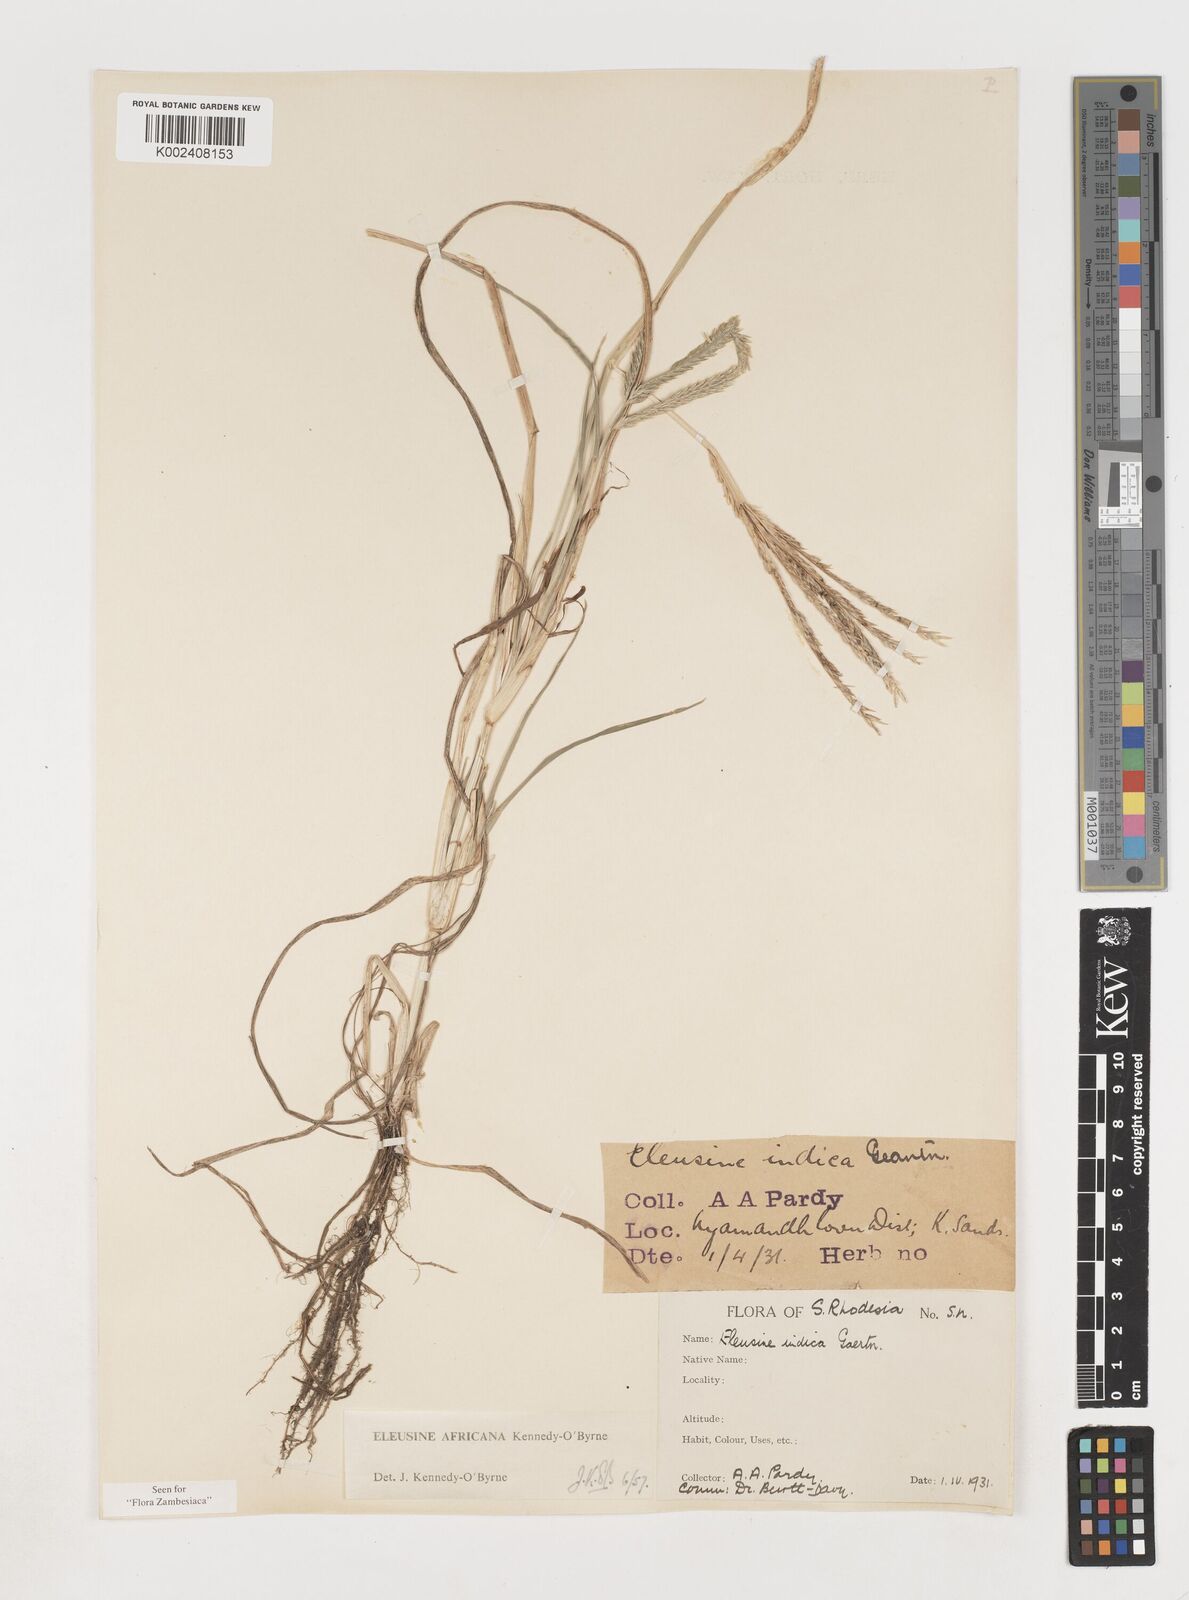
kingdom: Plantae
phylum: Tracheophyta
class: Liliopsida
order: Poales
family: Poaceae
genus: Eleusine
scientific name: Eleusine africana
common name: Wild african finger millet
